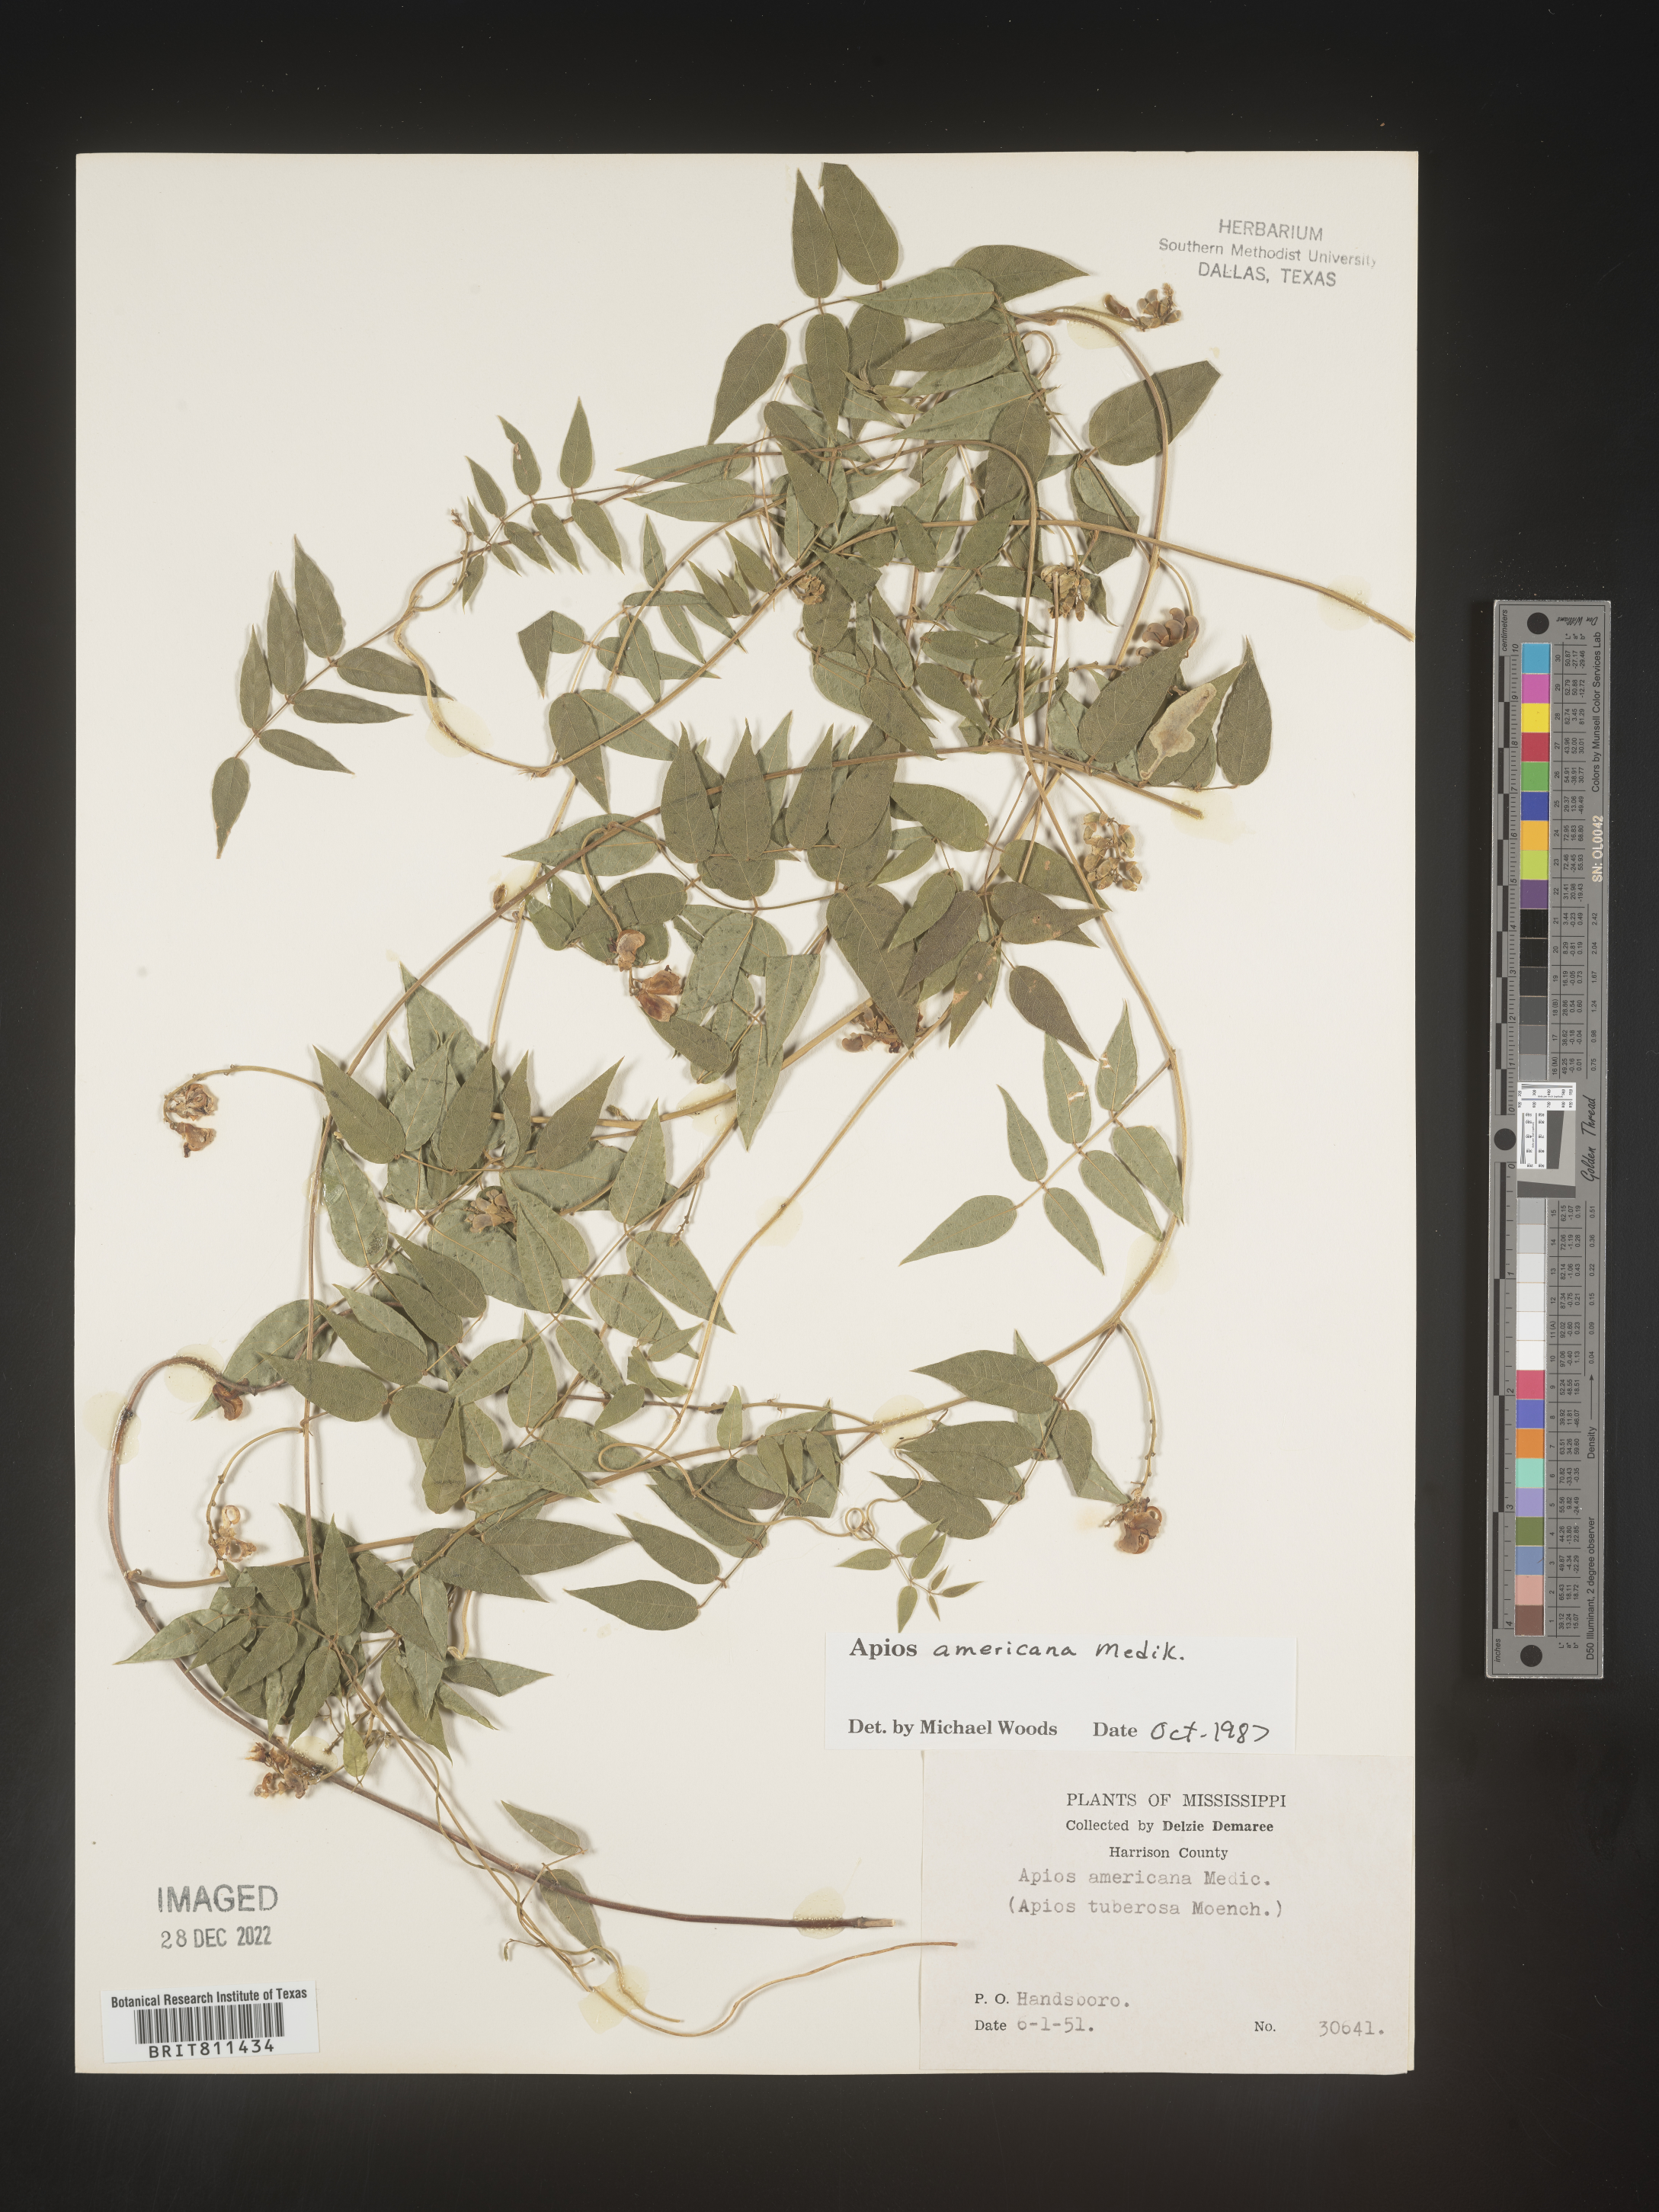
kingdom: Plantae
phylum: Tracheophyta
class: Magnoliopsida
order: Fabales
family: Fabaceae
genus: Apios
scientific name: Apios americana
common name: American potato-bean
